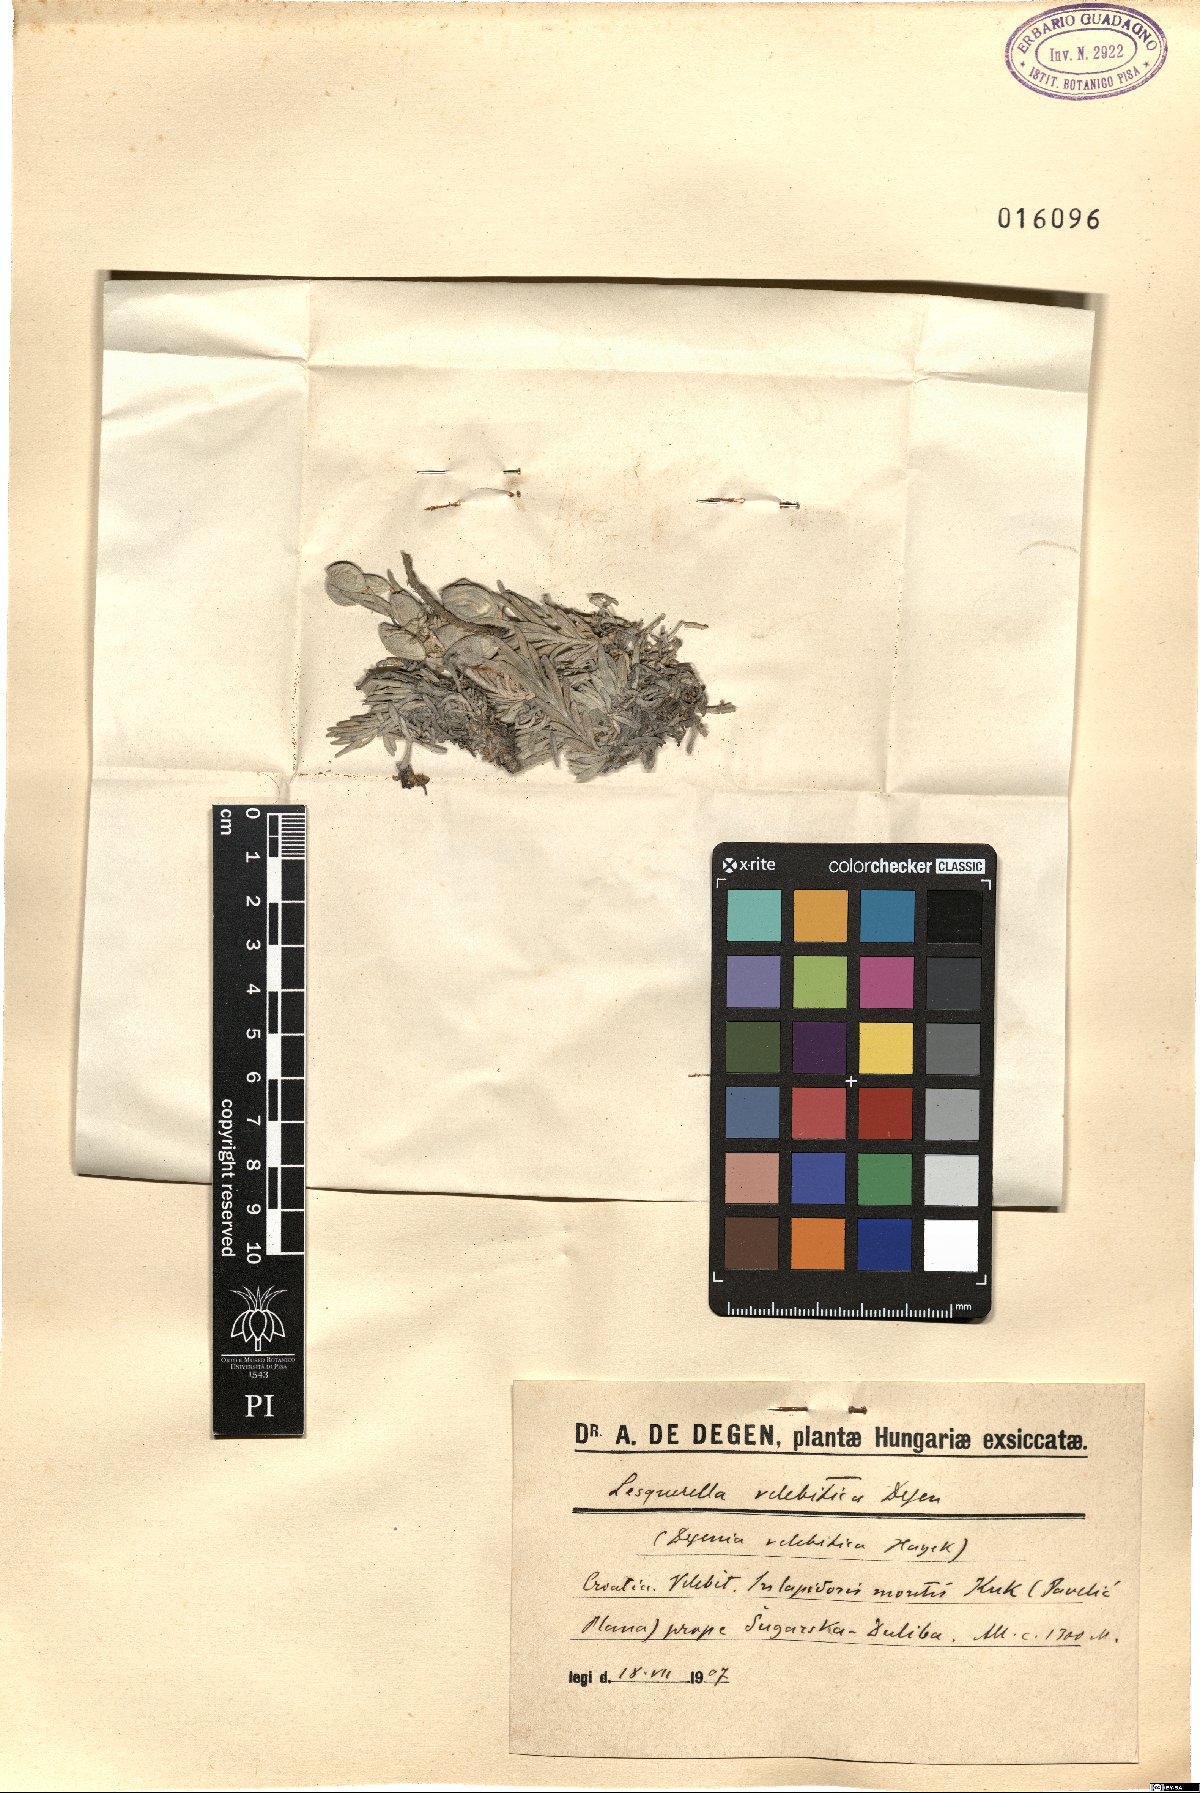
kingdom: Plantae
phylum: Tracheophyta
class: Magnoliopsida
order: Brassicales
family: Brassicaceae
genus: Degenia
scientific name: Degenia velebitica
